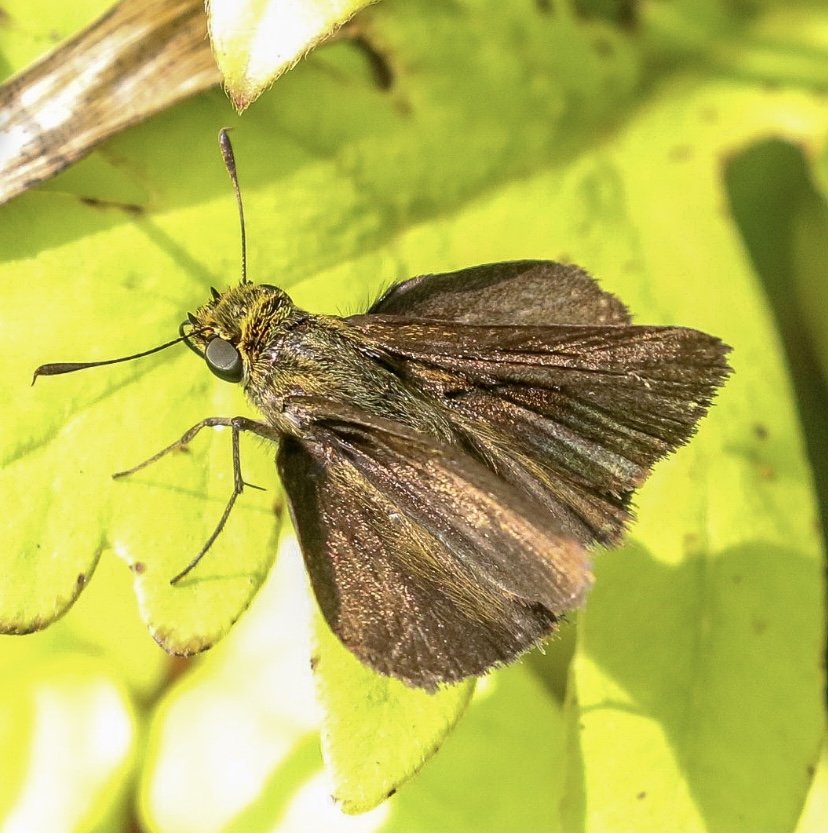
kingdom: Animalia
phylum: Arthropoda
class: Insecta
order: Lepidoptera
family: Hesperiidae
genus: Euphyes
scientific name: Euphyes vestris
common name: Dun Skipper
